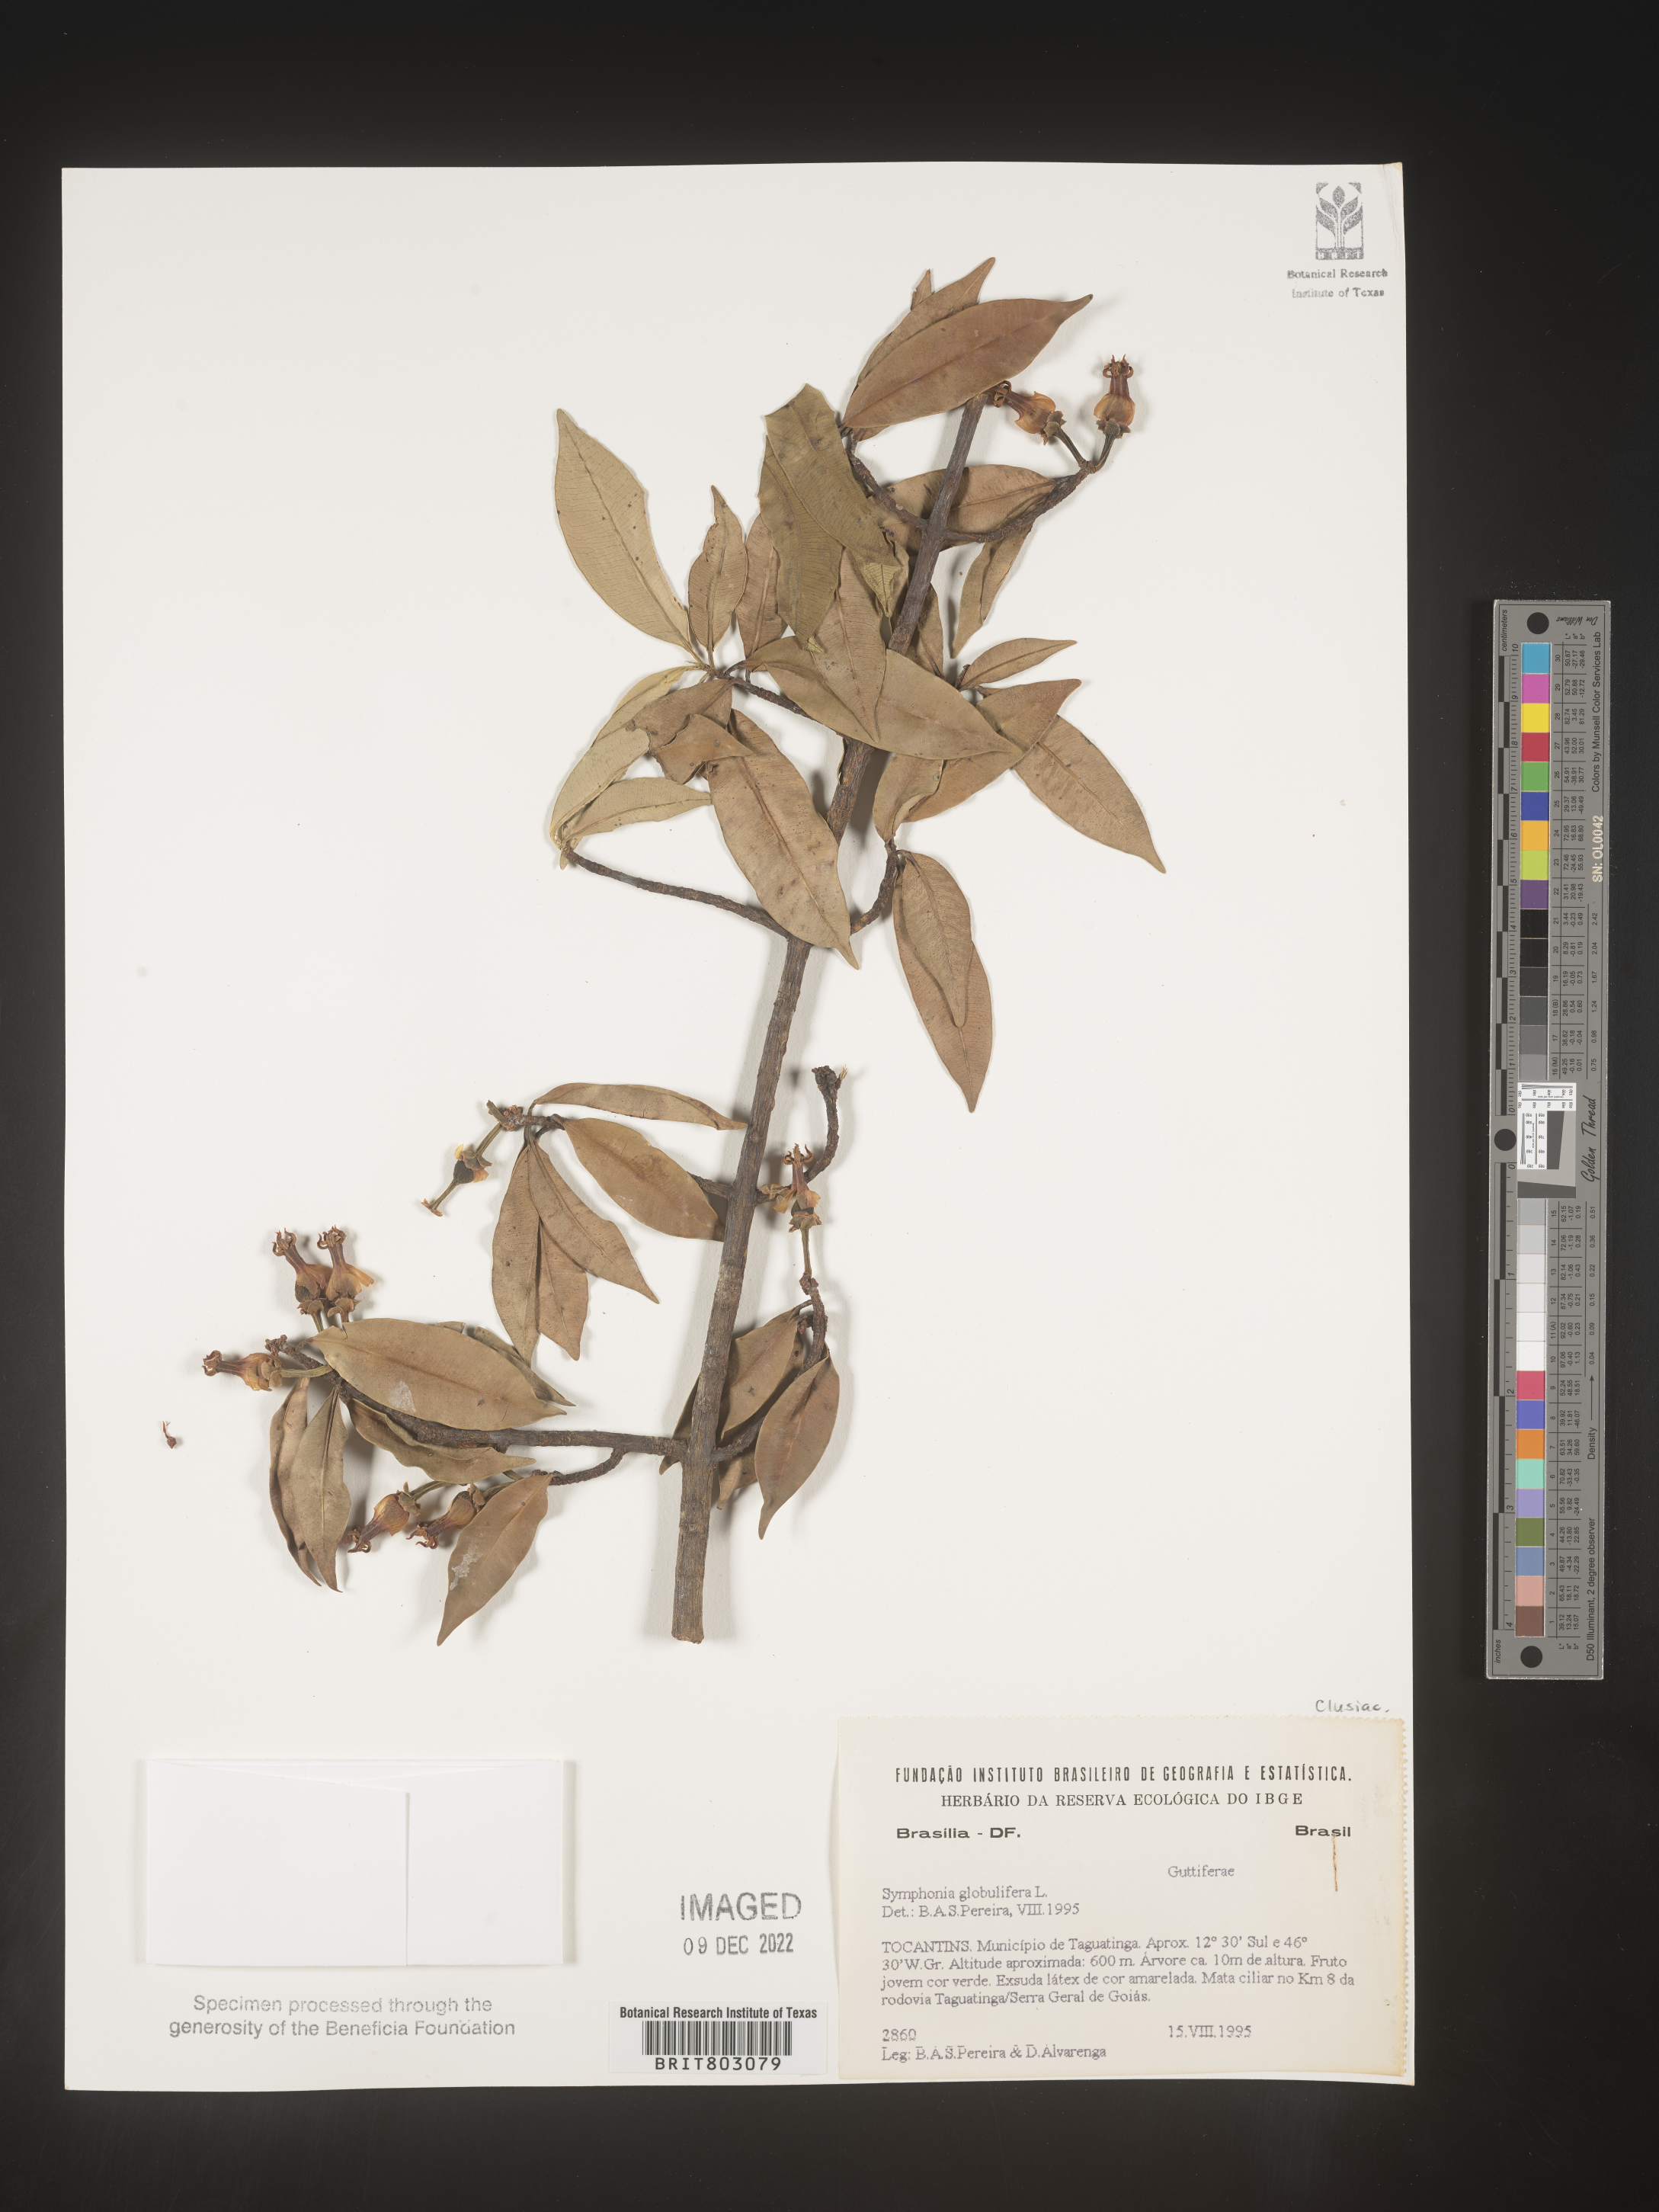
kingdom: Plantae
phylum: Tracheophyta
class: Magnoliopsida
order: Malpighiales
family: Clusiaceae
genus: Symphonia
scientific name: Symphonia
